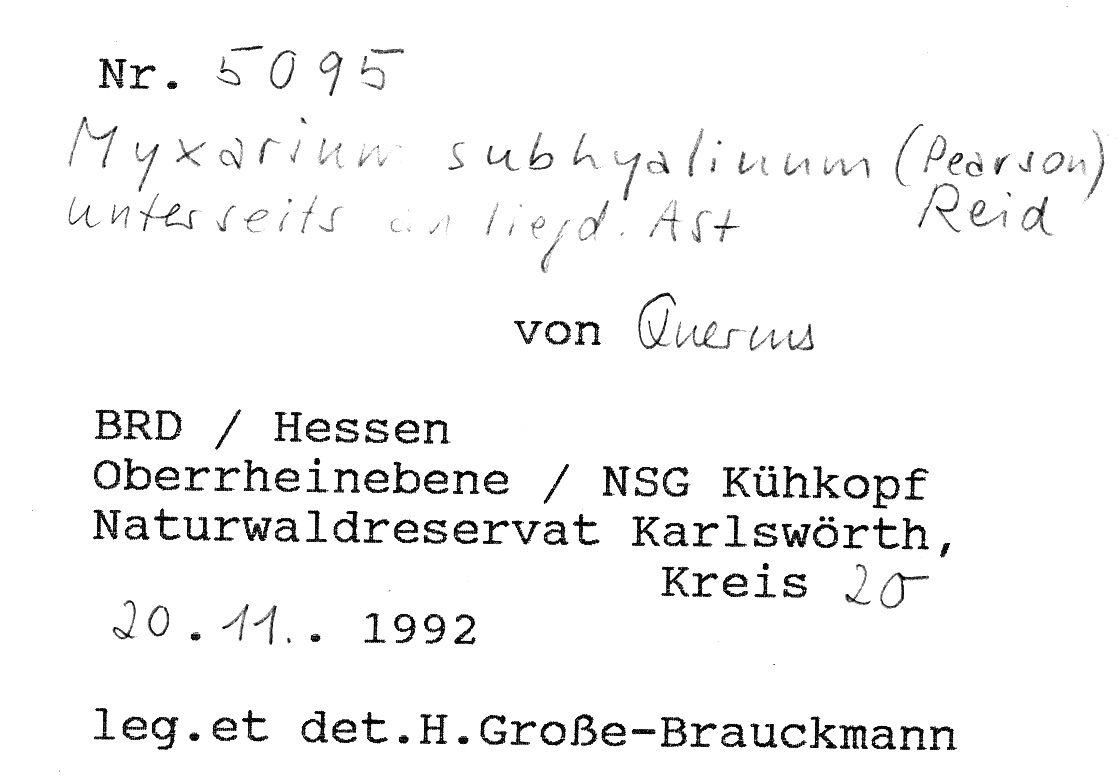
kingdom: Fungi
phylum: Basidiomycota
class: Agaricomycetes
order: Auriculariales
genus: Stypella
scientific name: Stypella subhyalina
